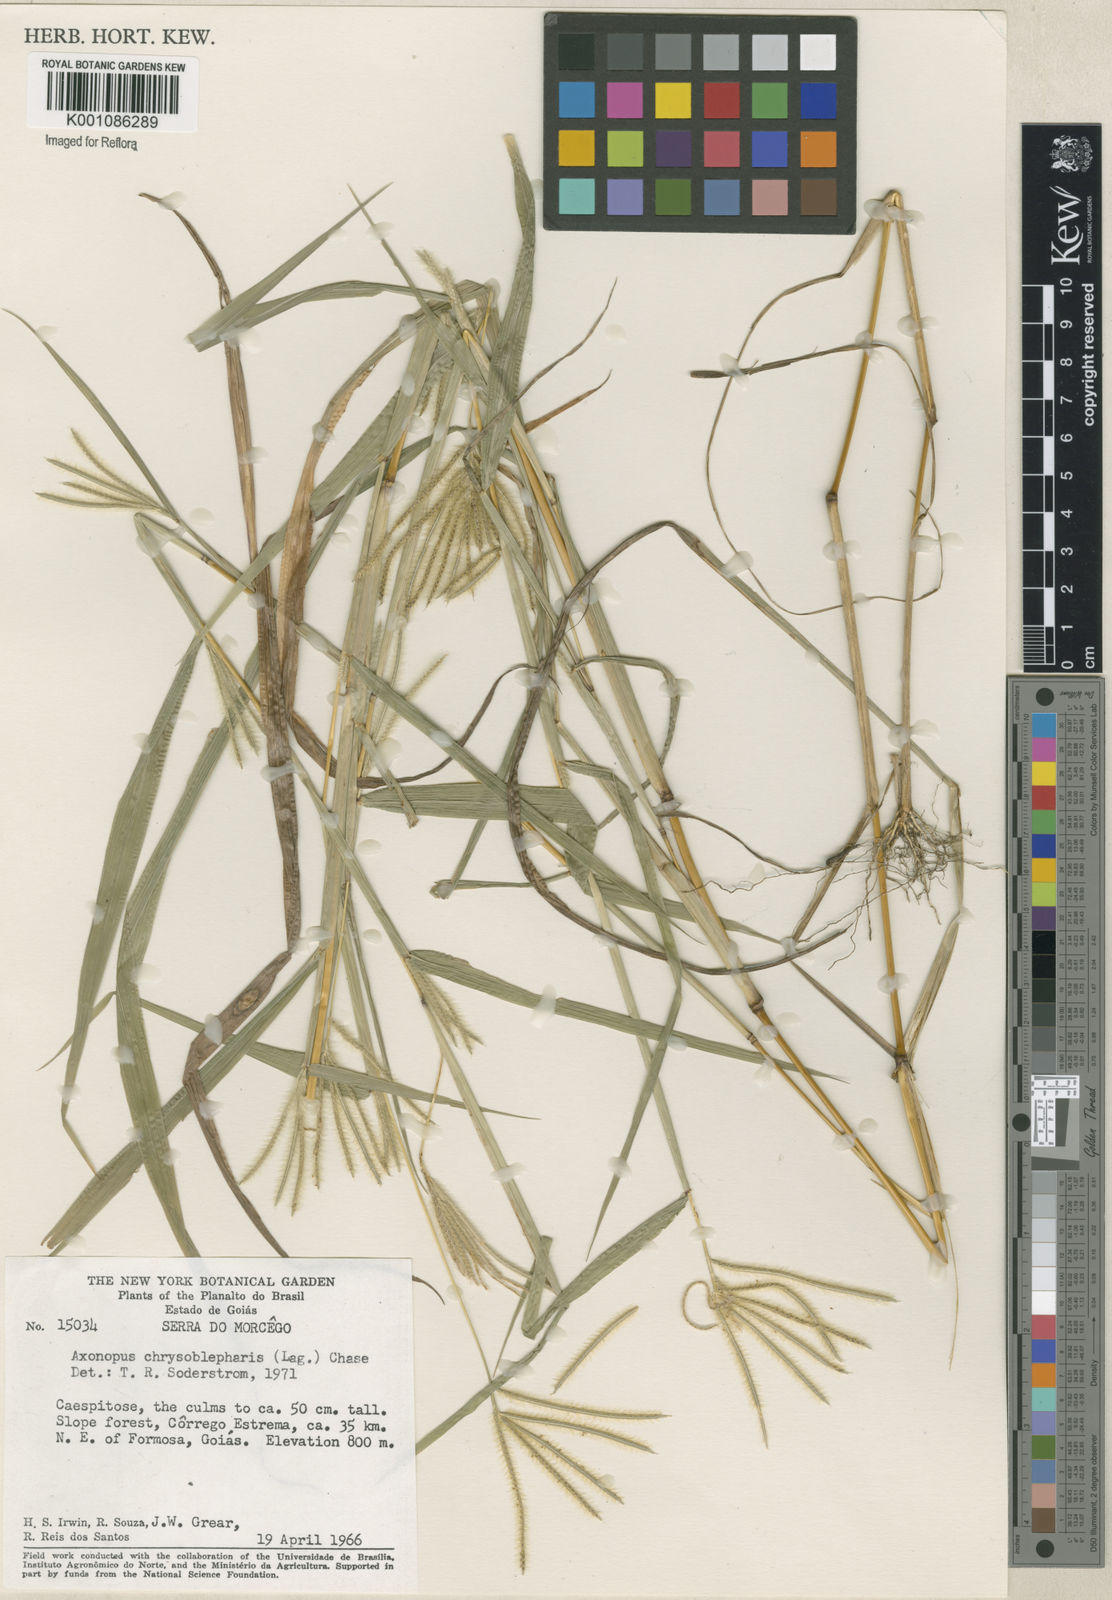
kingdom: Plantae
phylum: Tracheophyta
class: Liliopsida
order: Poales
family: Poaceae
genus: Axonopus
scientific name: Axonopus chrysoblepharis
